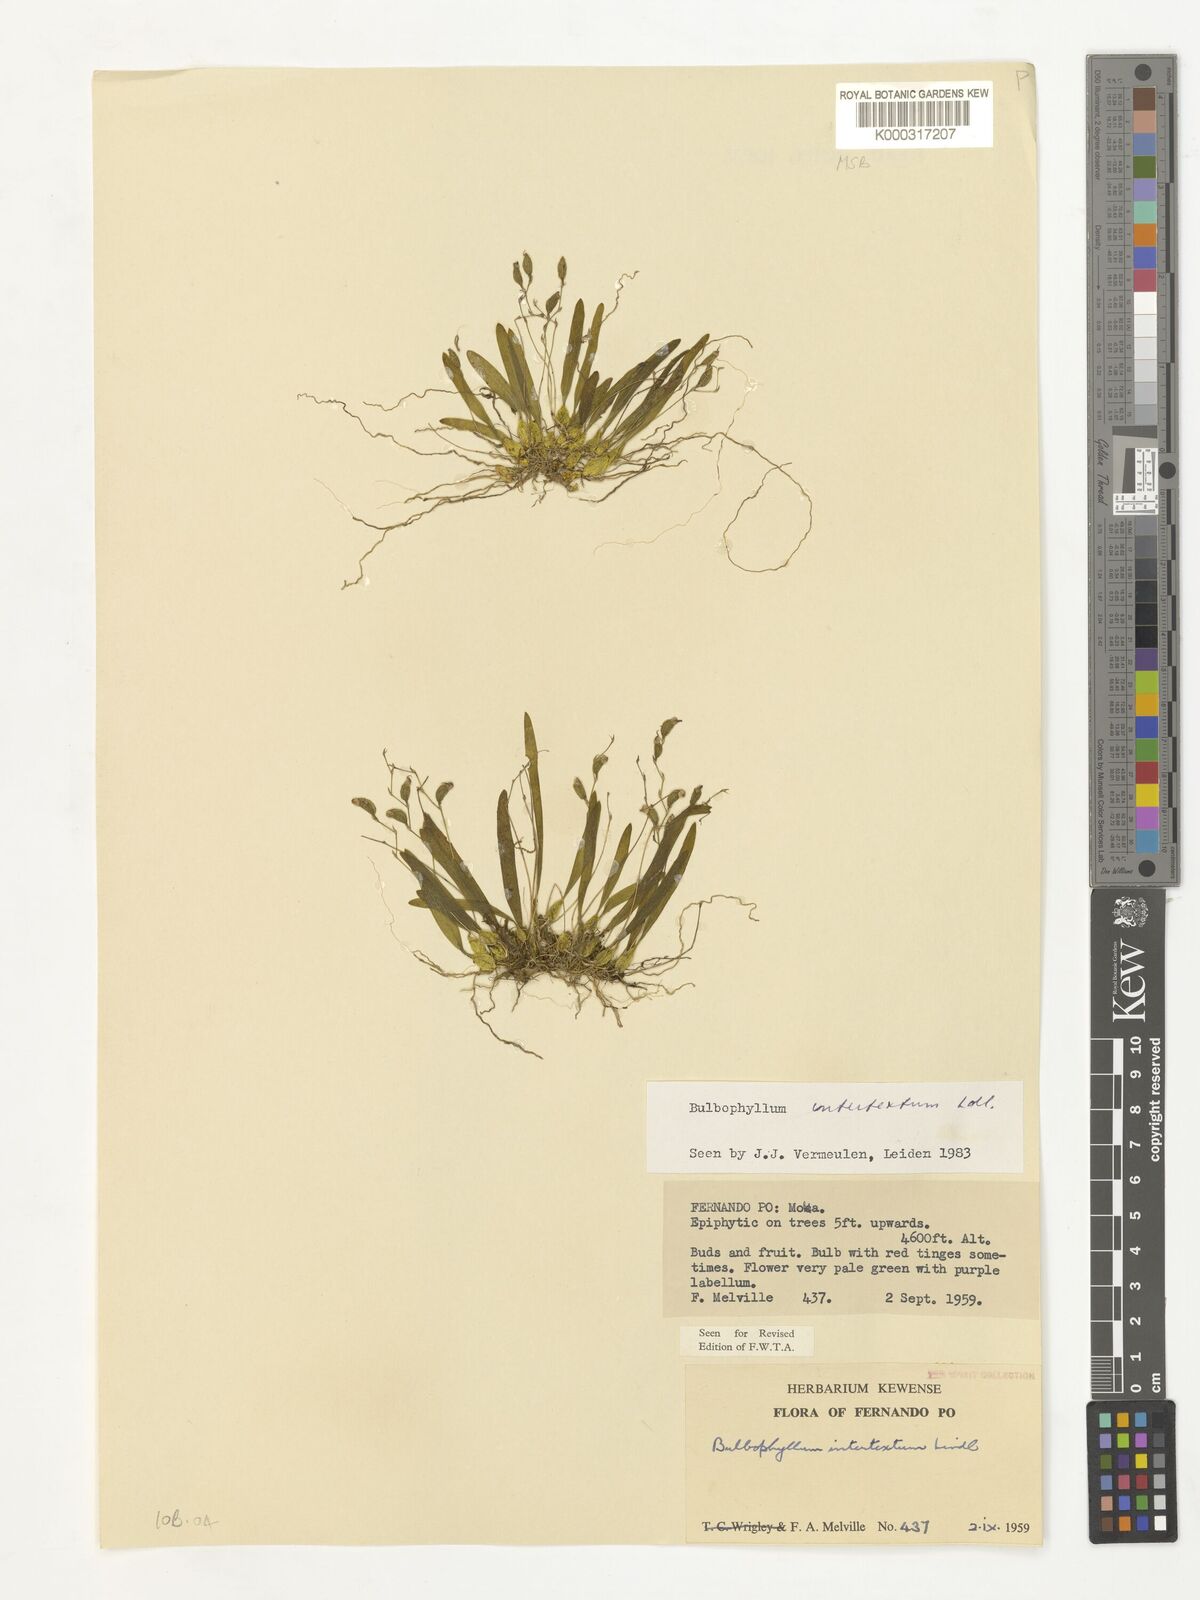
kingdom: Plantae
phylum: Tracheophyta
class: Liliopsida
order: Asparagales
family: Orchidaceae
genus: Bulbophyllum
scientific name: Bulbophyllum intertextum
